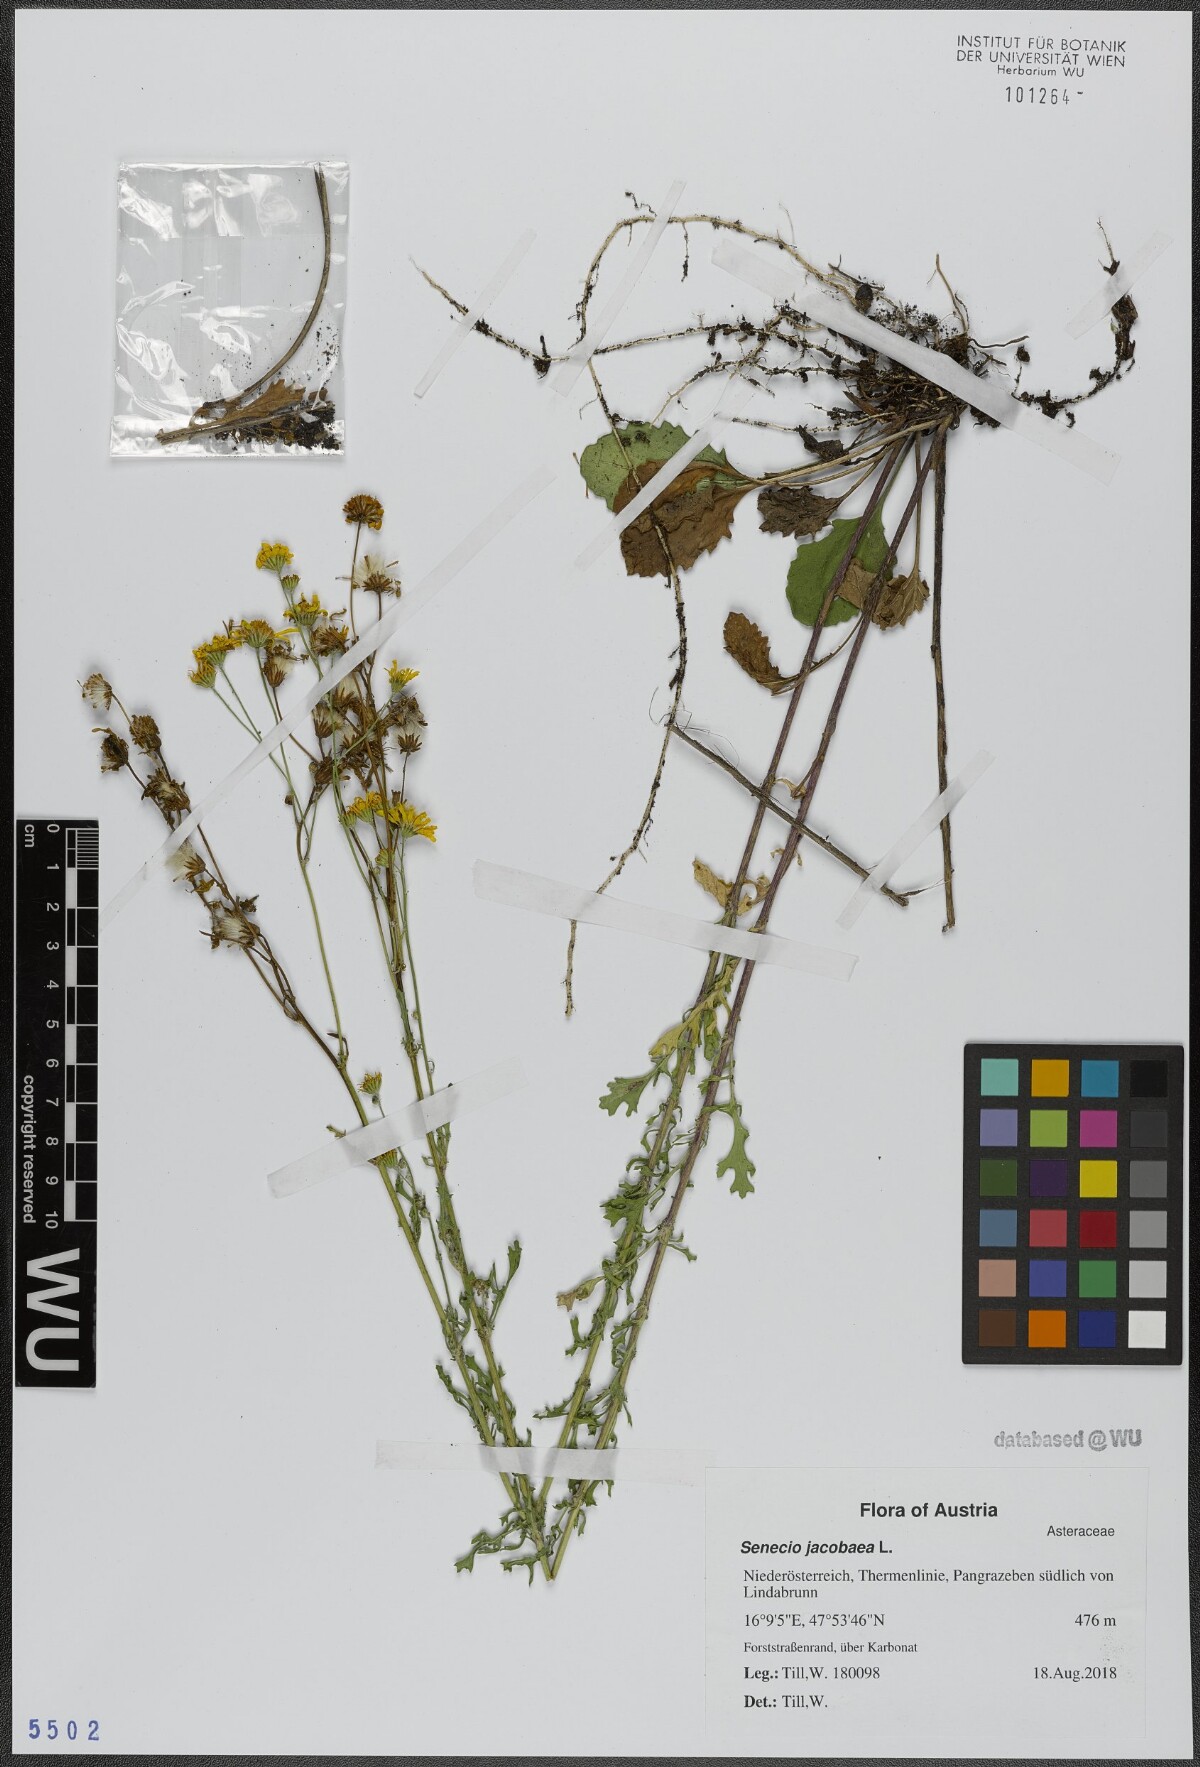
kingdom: Plantae
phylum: Tracheophyta
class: Magnoliopsida
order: Asterales
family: Asteraceae
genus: Jacobaea
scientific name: Jacobaea vulgaris
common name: Stinking willie
